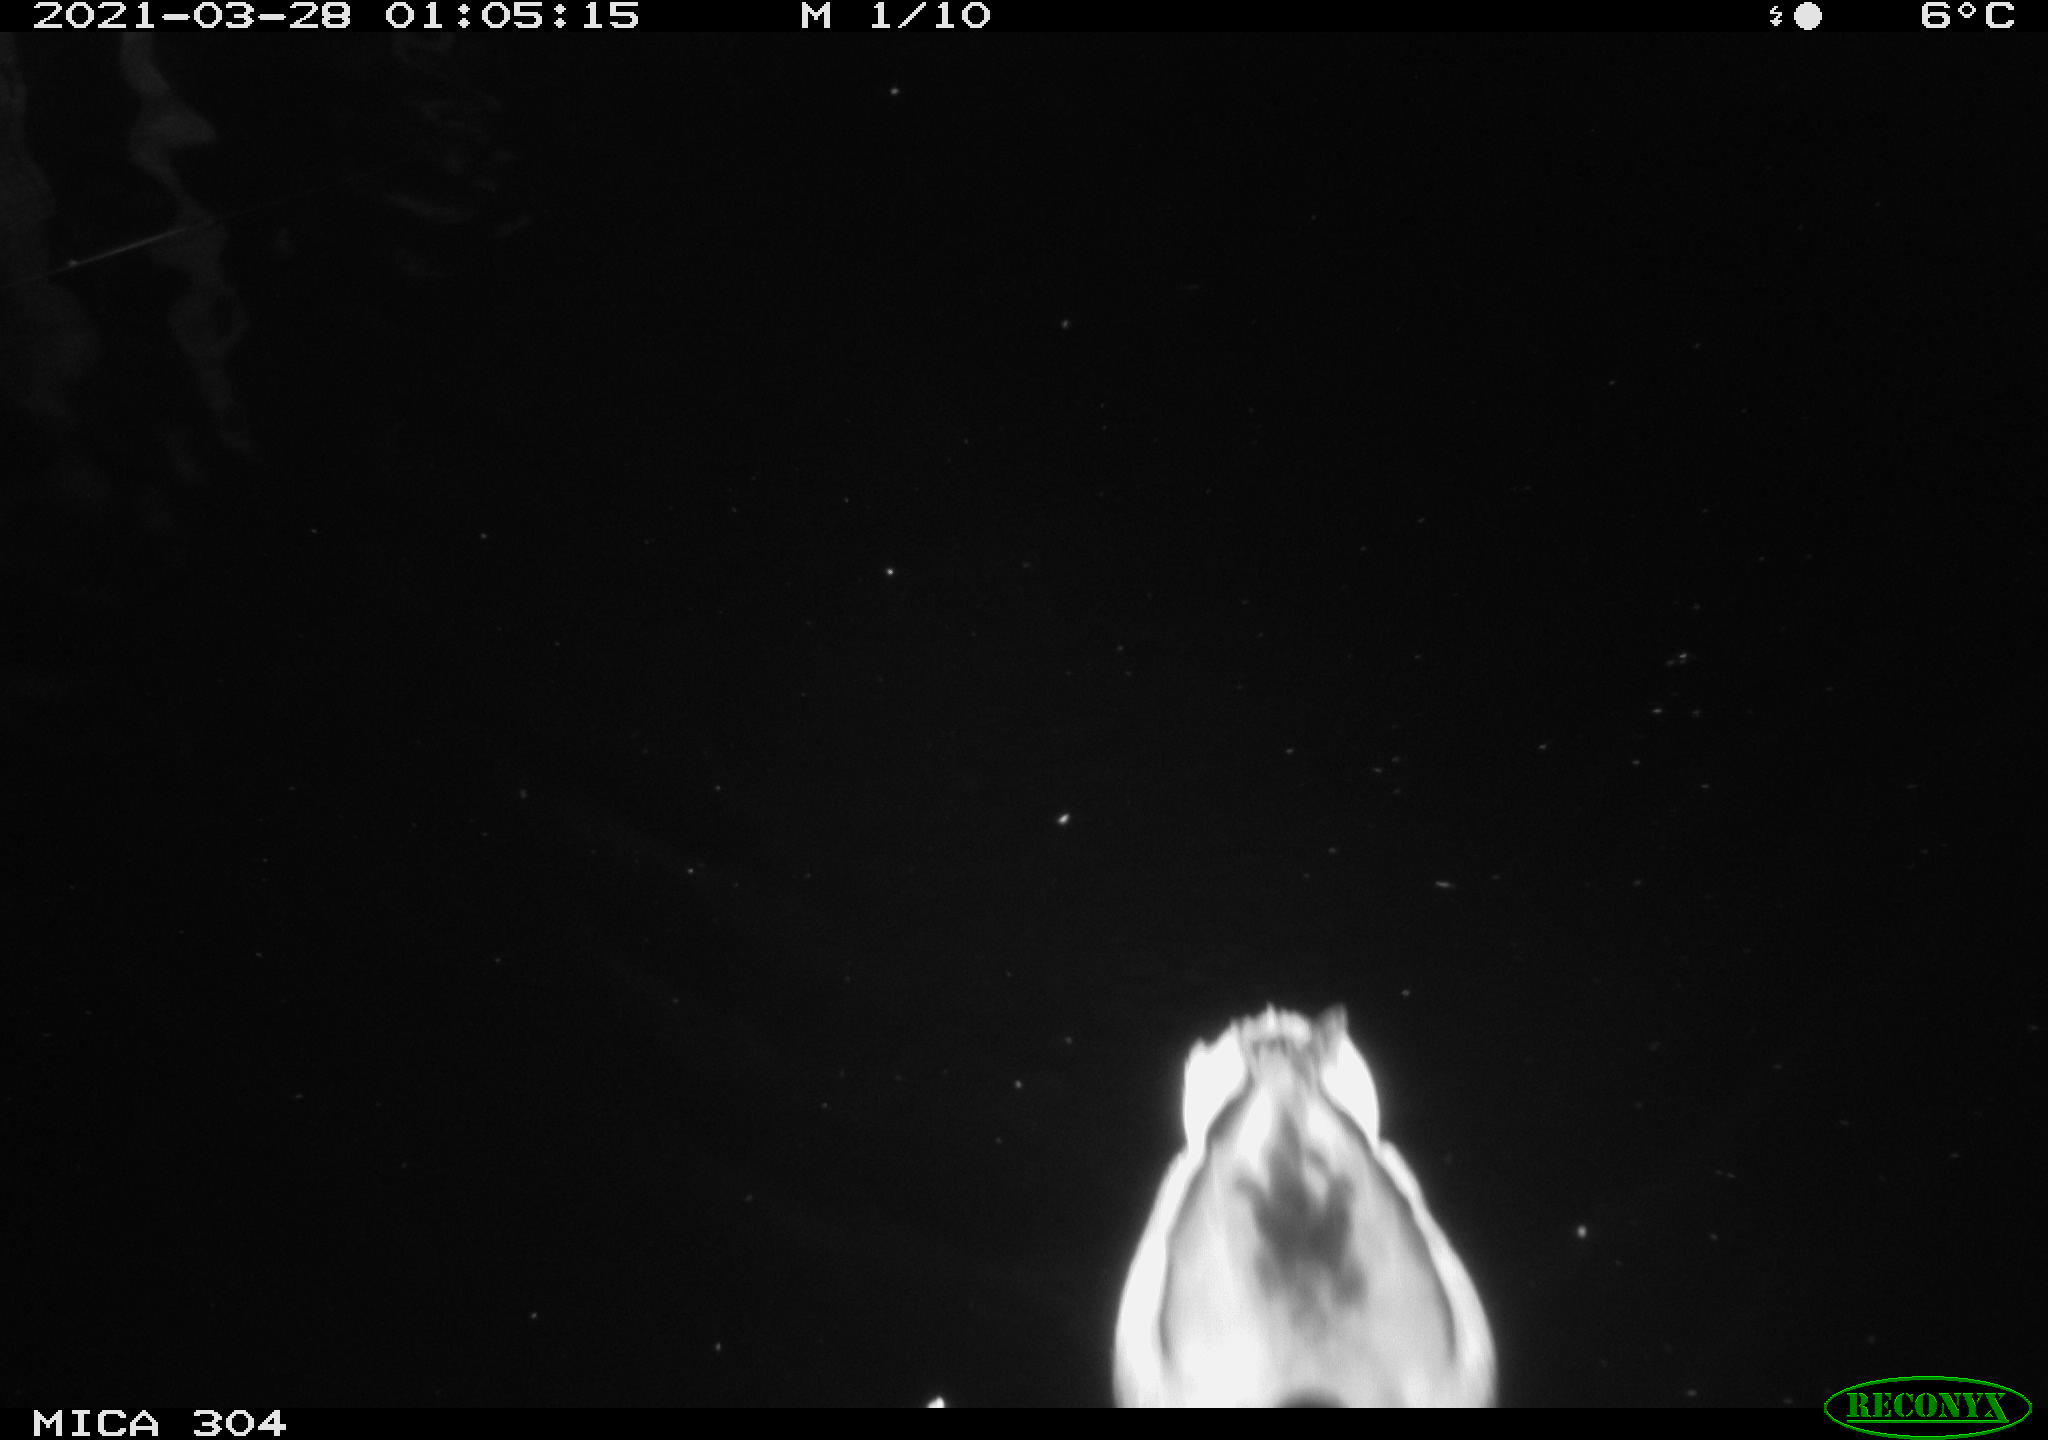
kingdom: Animalia
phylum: Chordata
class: Aves
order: Anseriformes
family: Anatidae
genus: Anas
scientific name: Anas platyrhynchos
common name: Mallard
